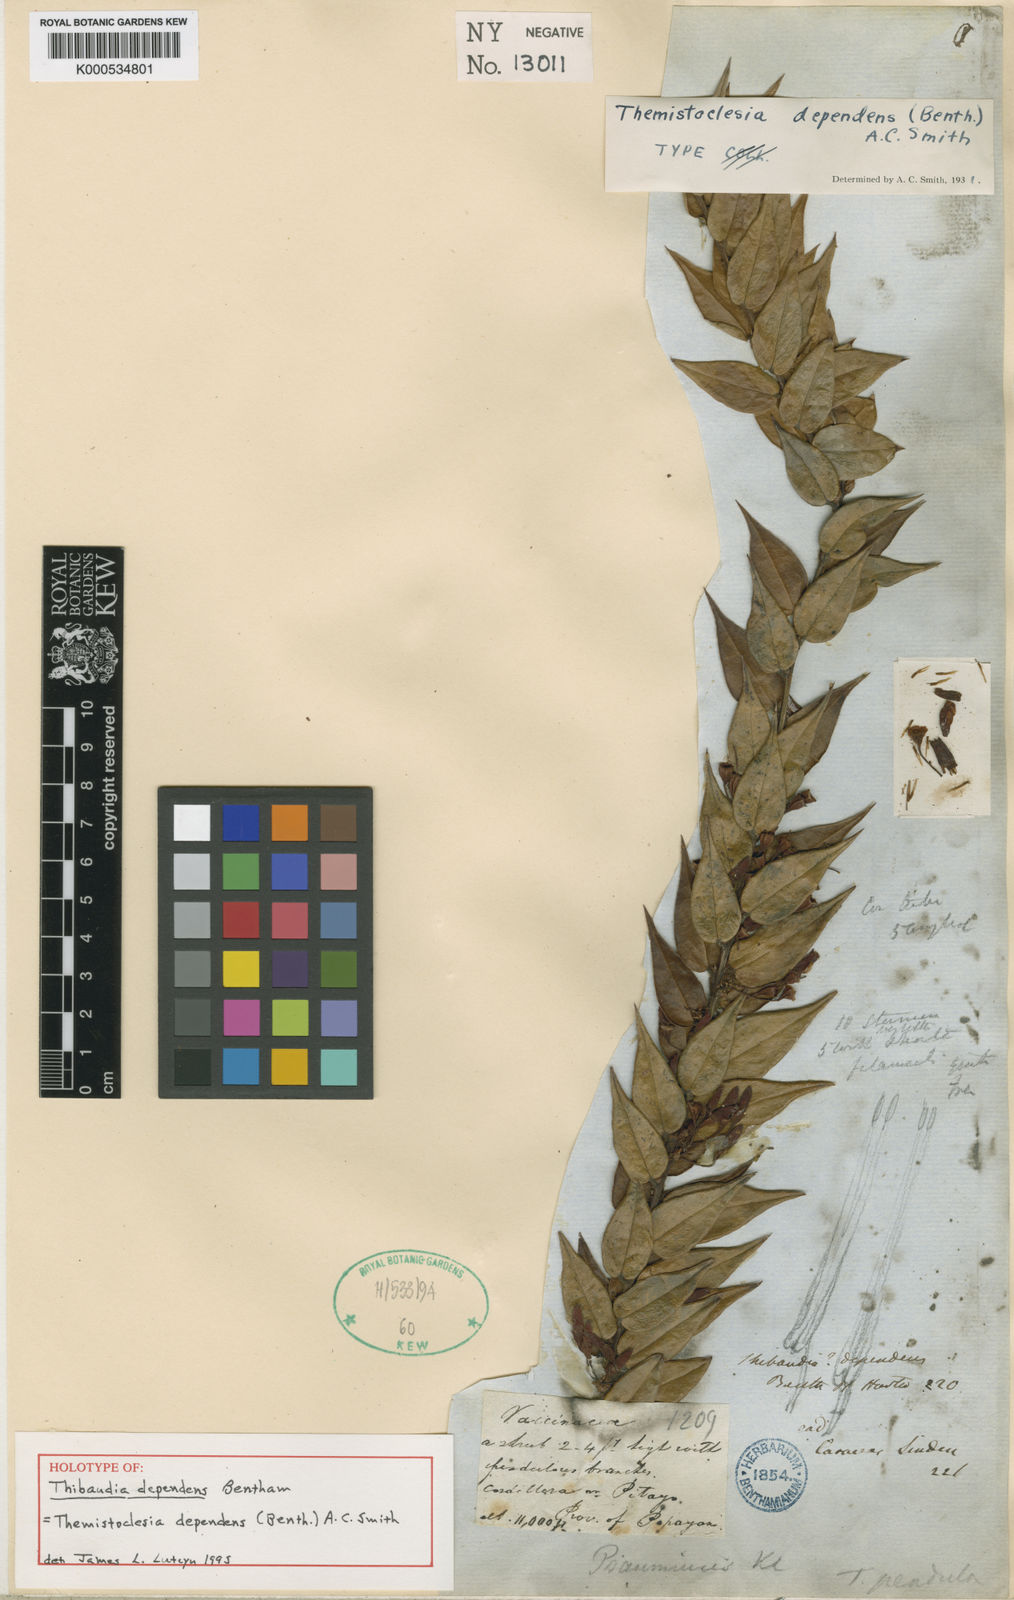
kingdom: Plantae
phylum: Tracheophyta
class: Magnoliopsida
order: Ericales
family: Ericaceae
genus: Themistoclesia
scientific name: Themistoclesia dependens
